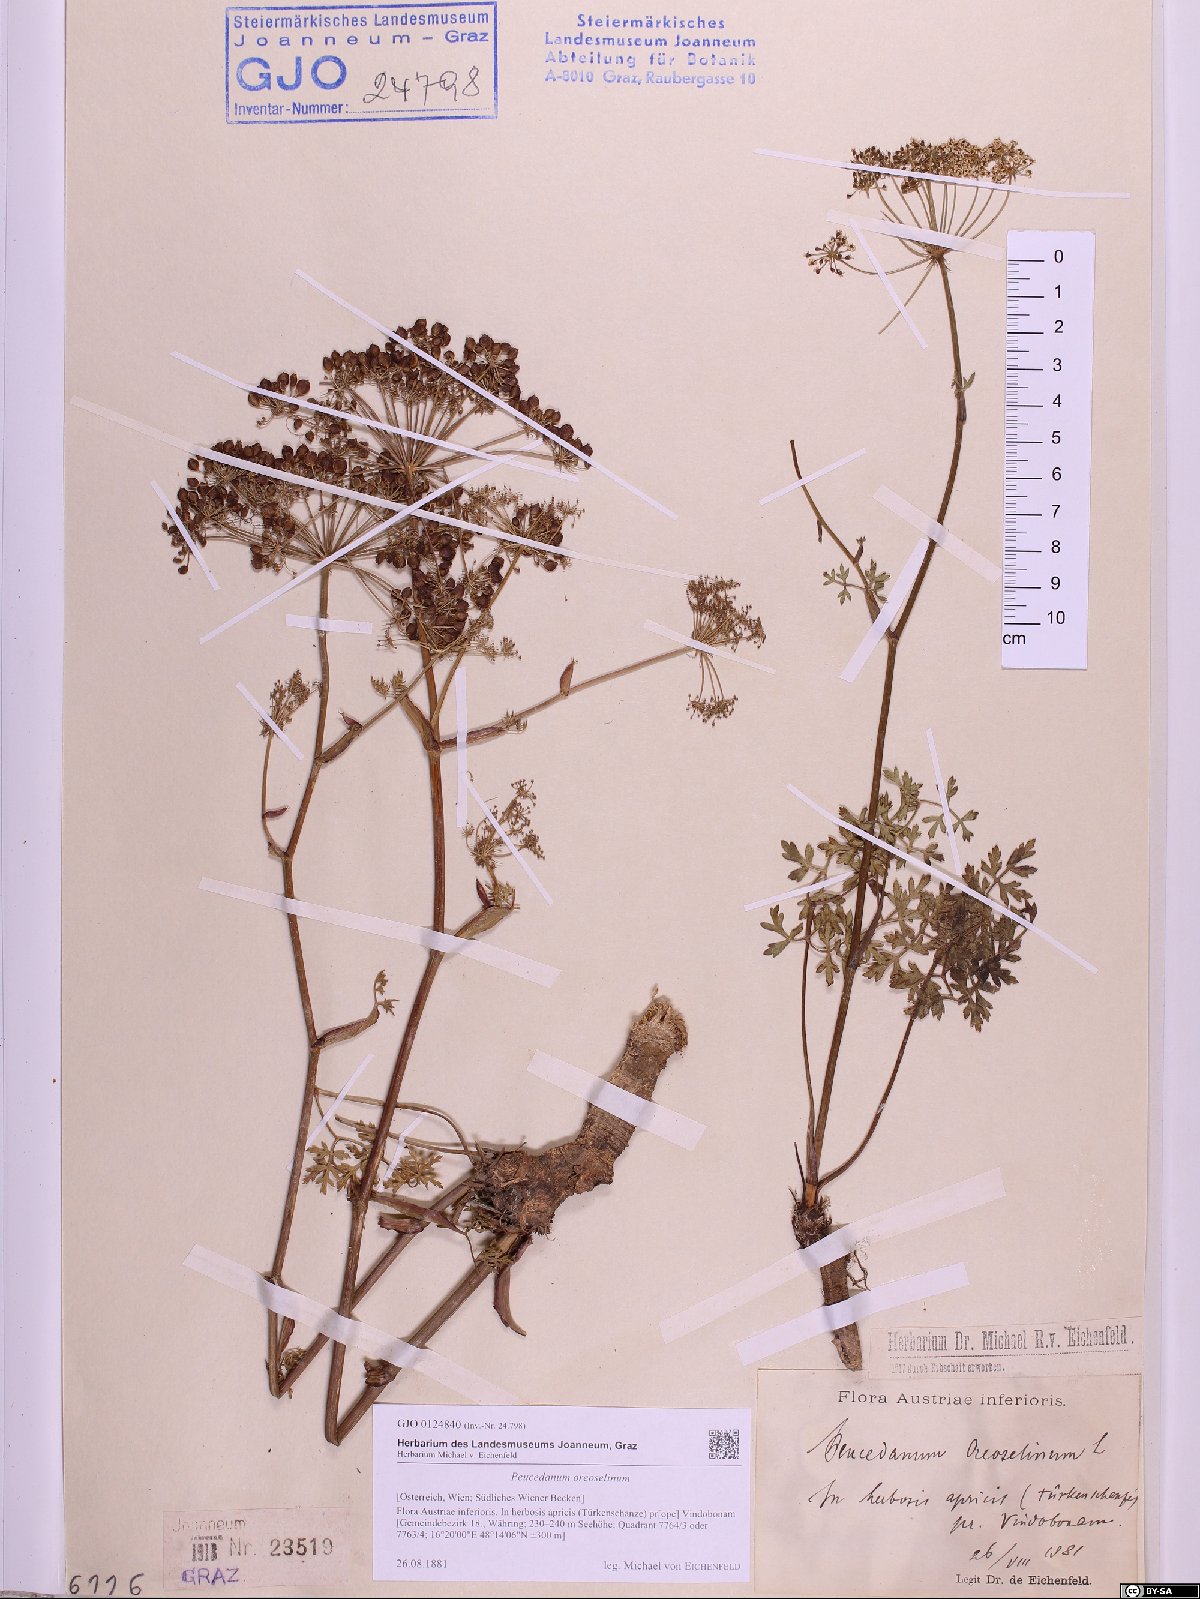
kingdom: Plantae
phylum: Tracheophyta
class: Magnoliopsida
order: Apiales
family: Apiaceae
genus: Oreoselinum
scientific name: Oreoselinum nigrum
